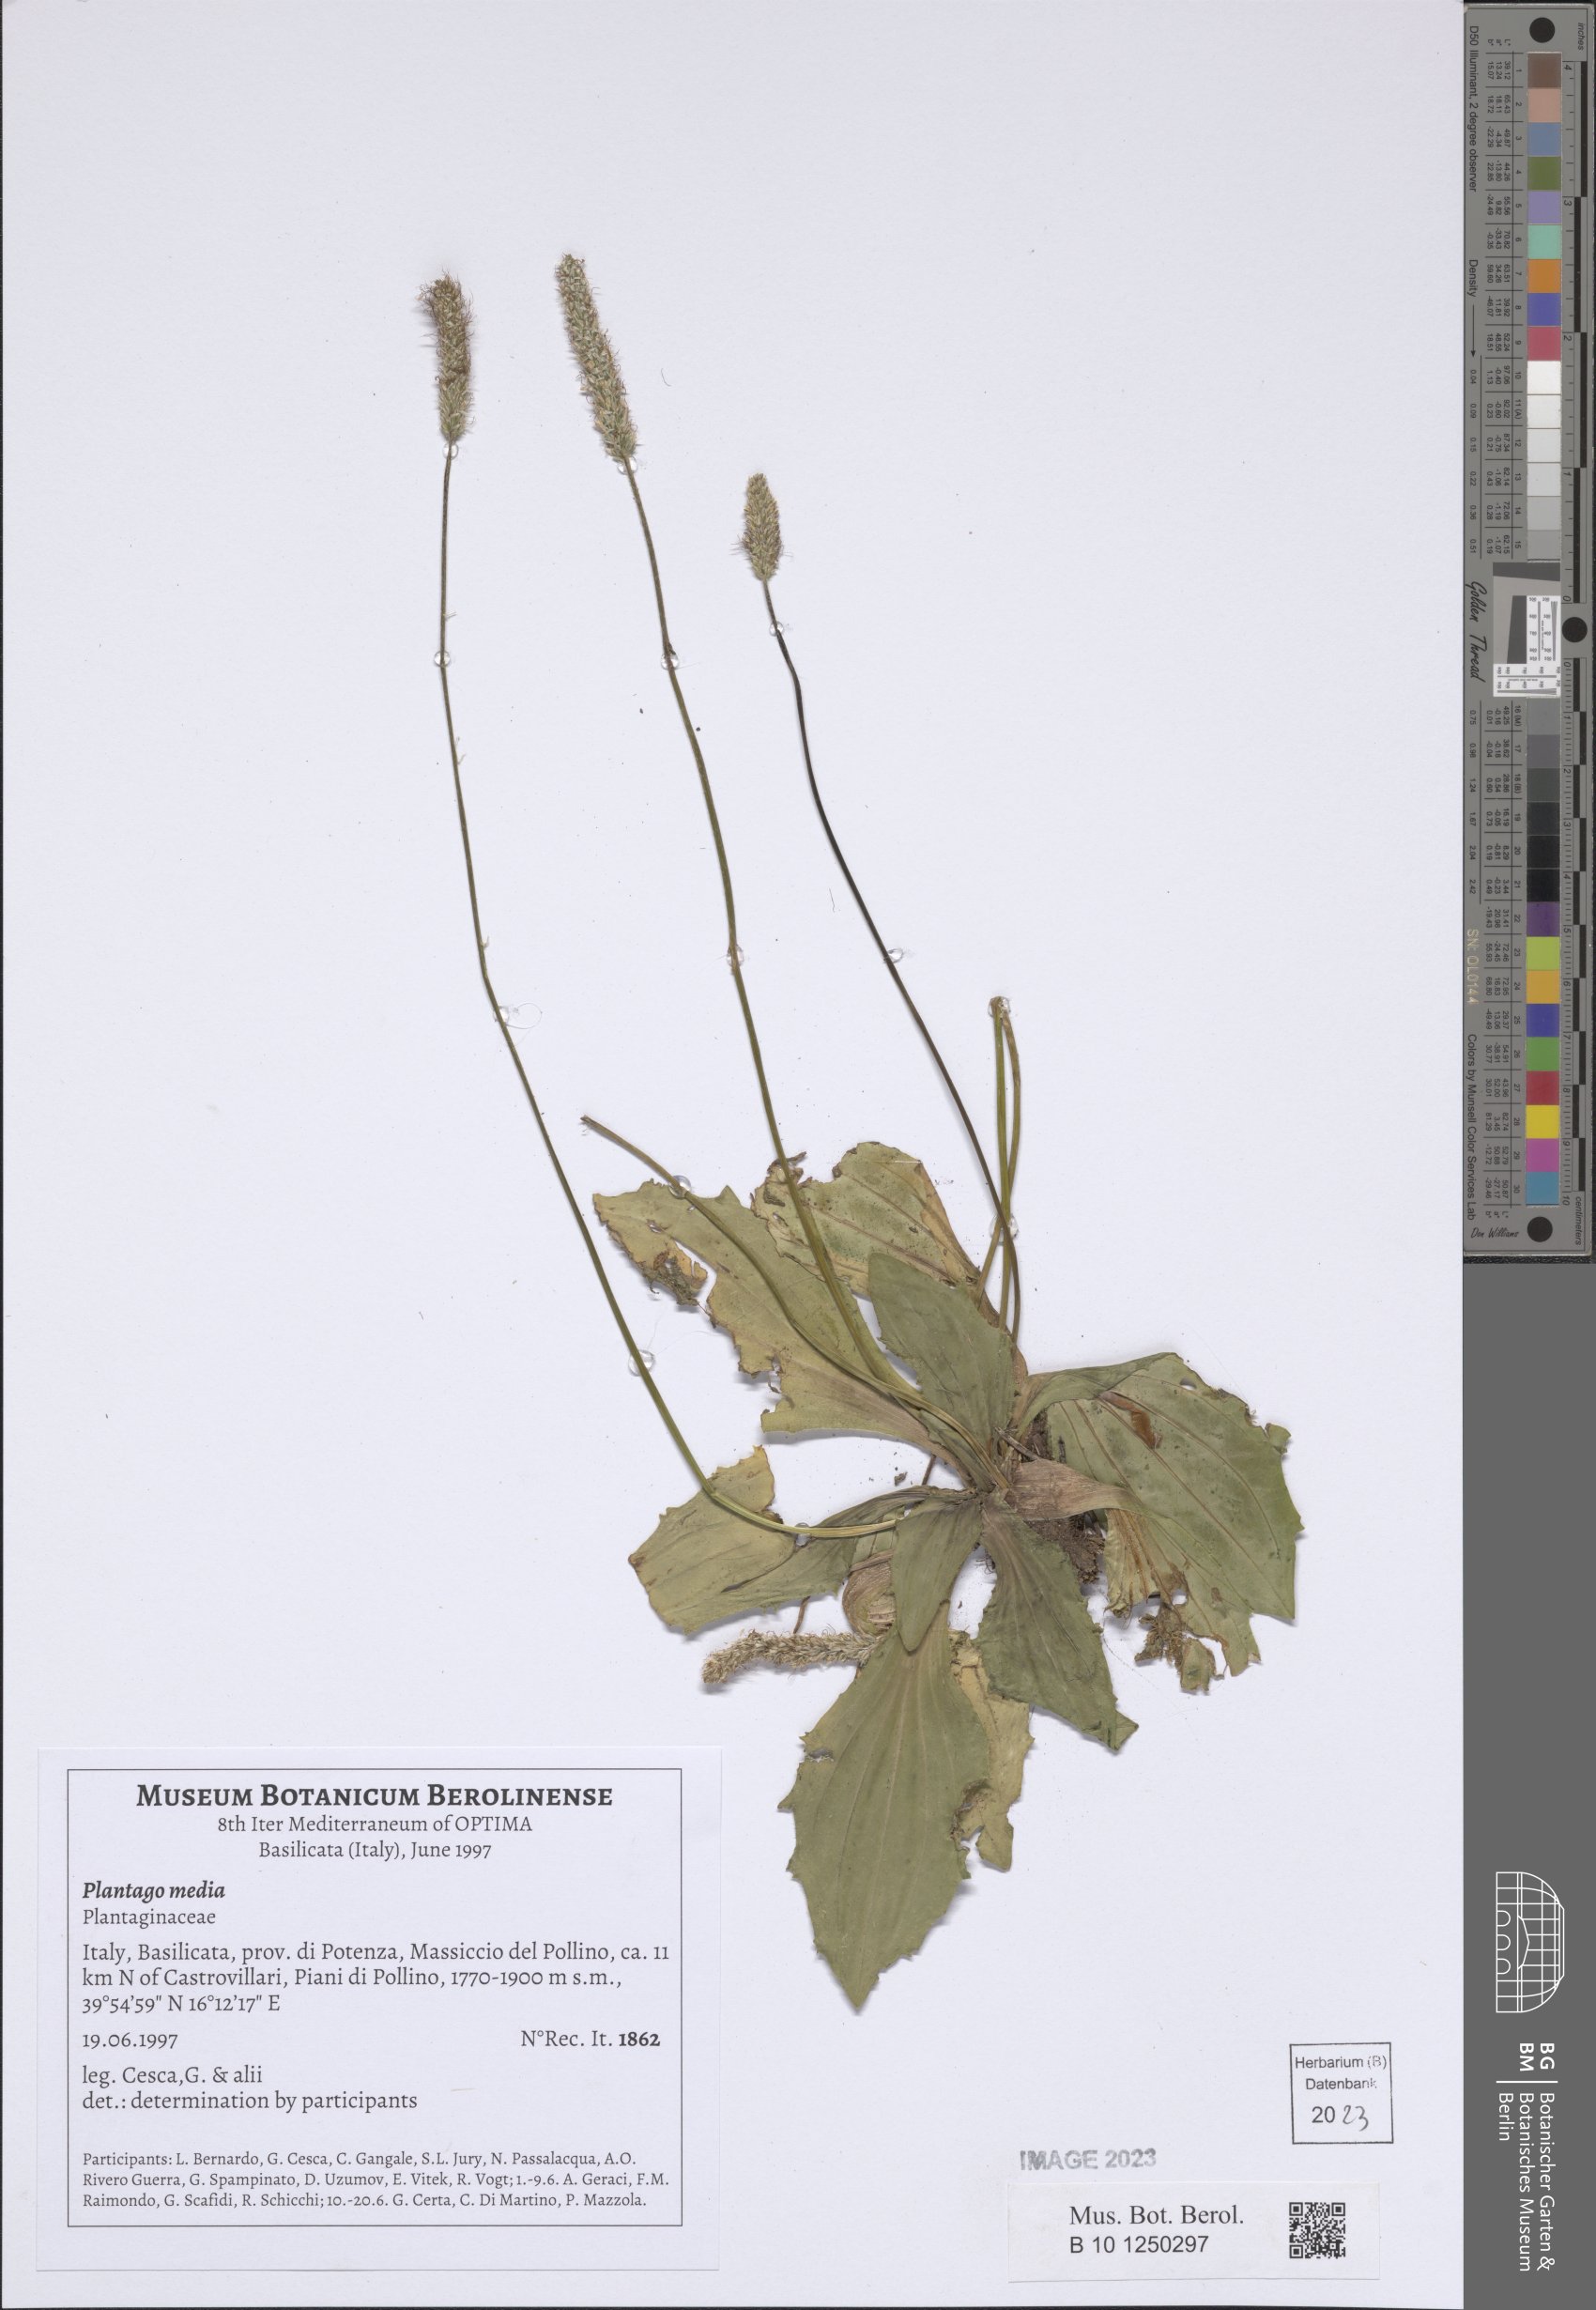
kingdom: Plantae
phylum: Tracheophyta
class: Magnoliopsida
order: Lamiales
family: Plantaginaceae
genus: Plantago
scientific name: Plantago media
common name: Hoary plantain
